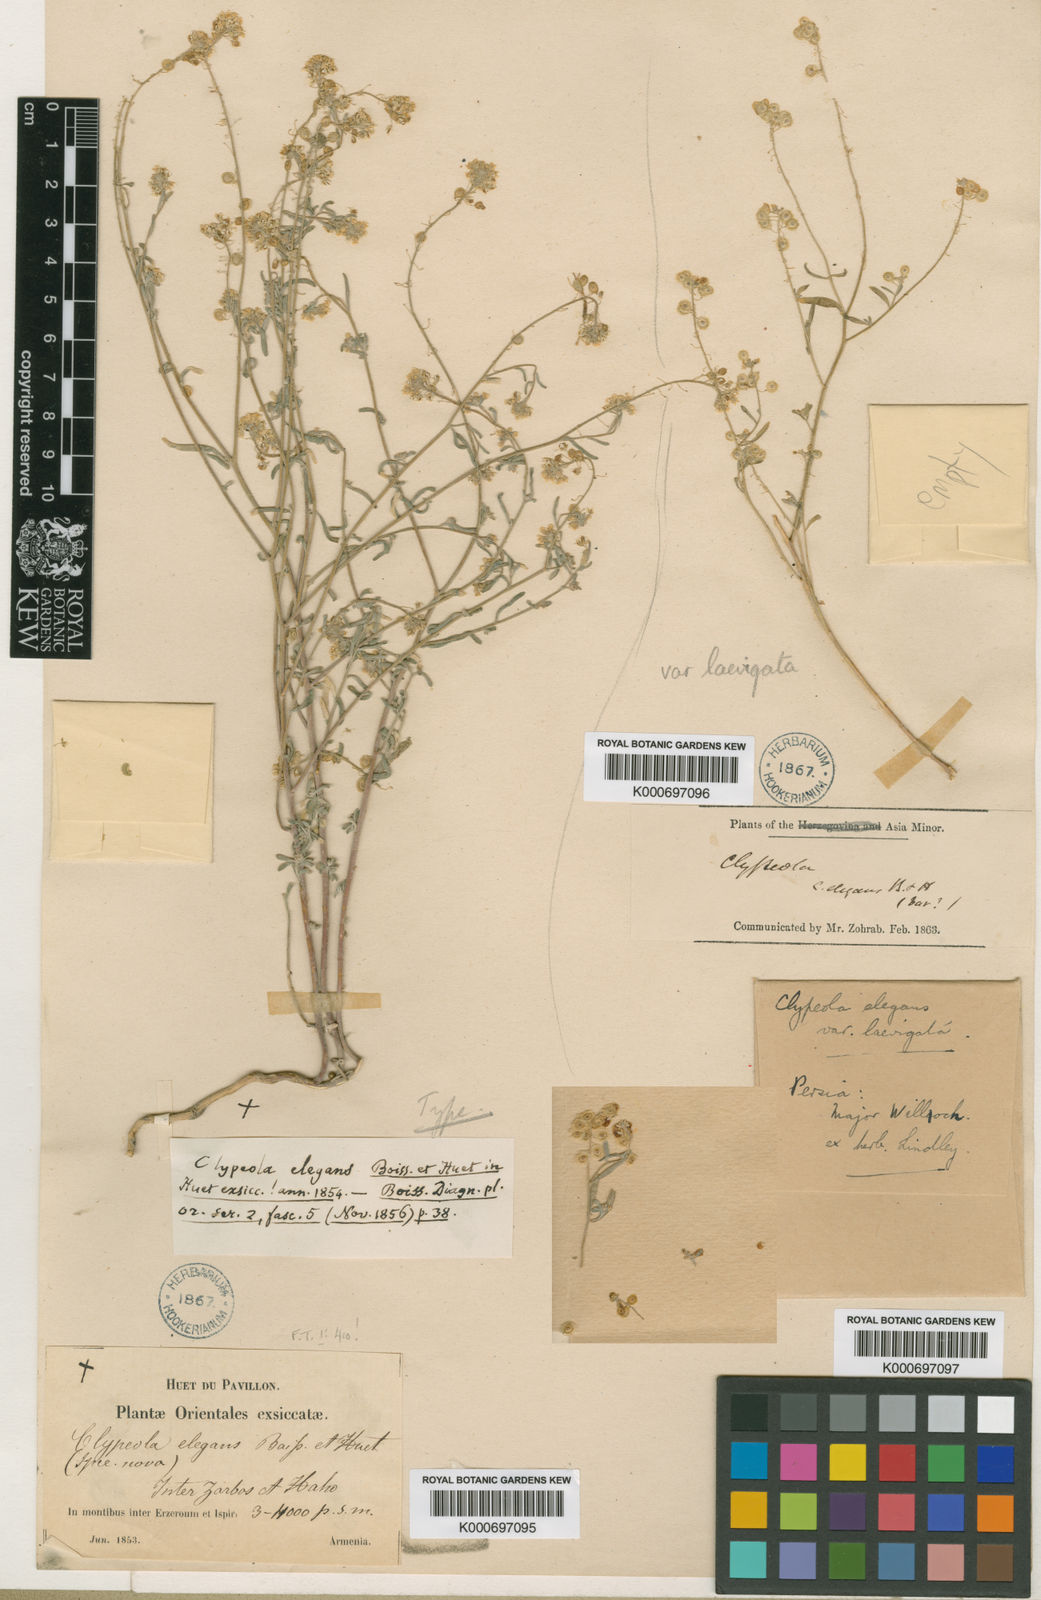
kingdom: Plantae
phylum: Tracheophyta
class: Magnoliopsida
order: Brassicales
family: Brassicaceae
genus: Clypeola
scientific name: Clypeola elegans
